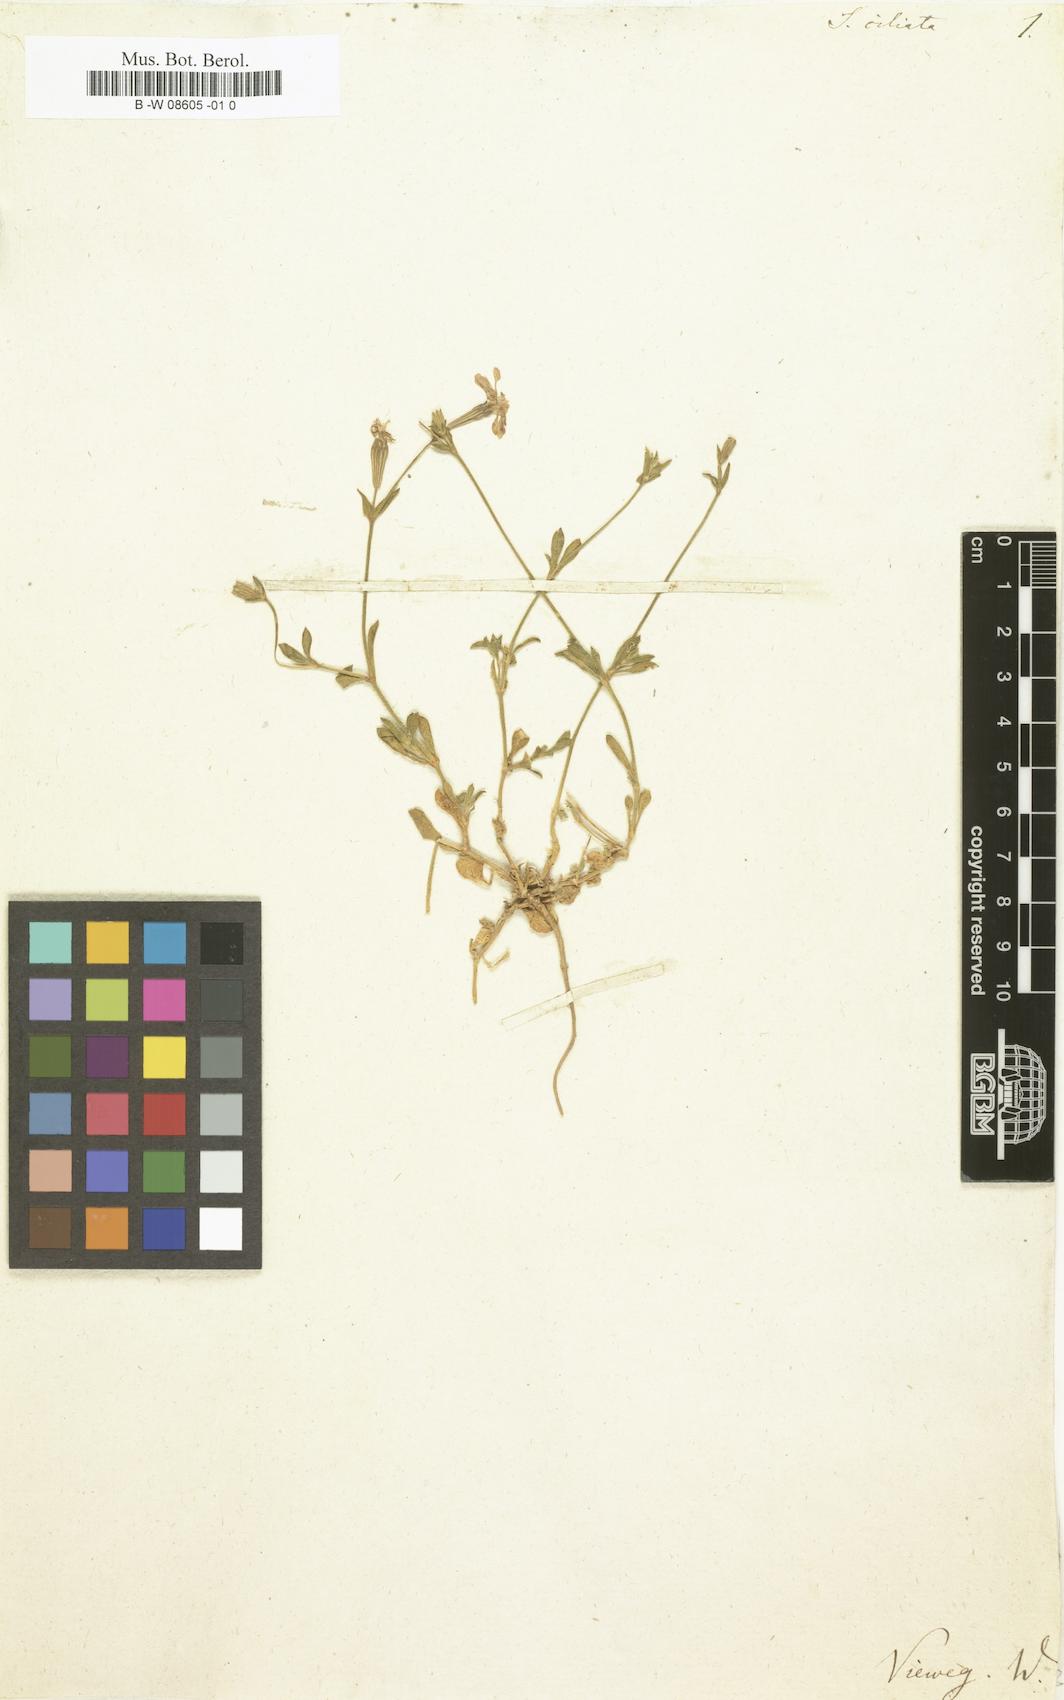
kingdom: Plantae
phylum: Tracheophyta
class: Magnoliopsida
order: Caryophyllales
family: Caryophyllaceae
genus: Silene
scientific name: Silene ciliata
